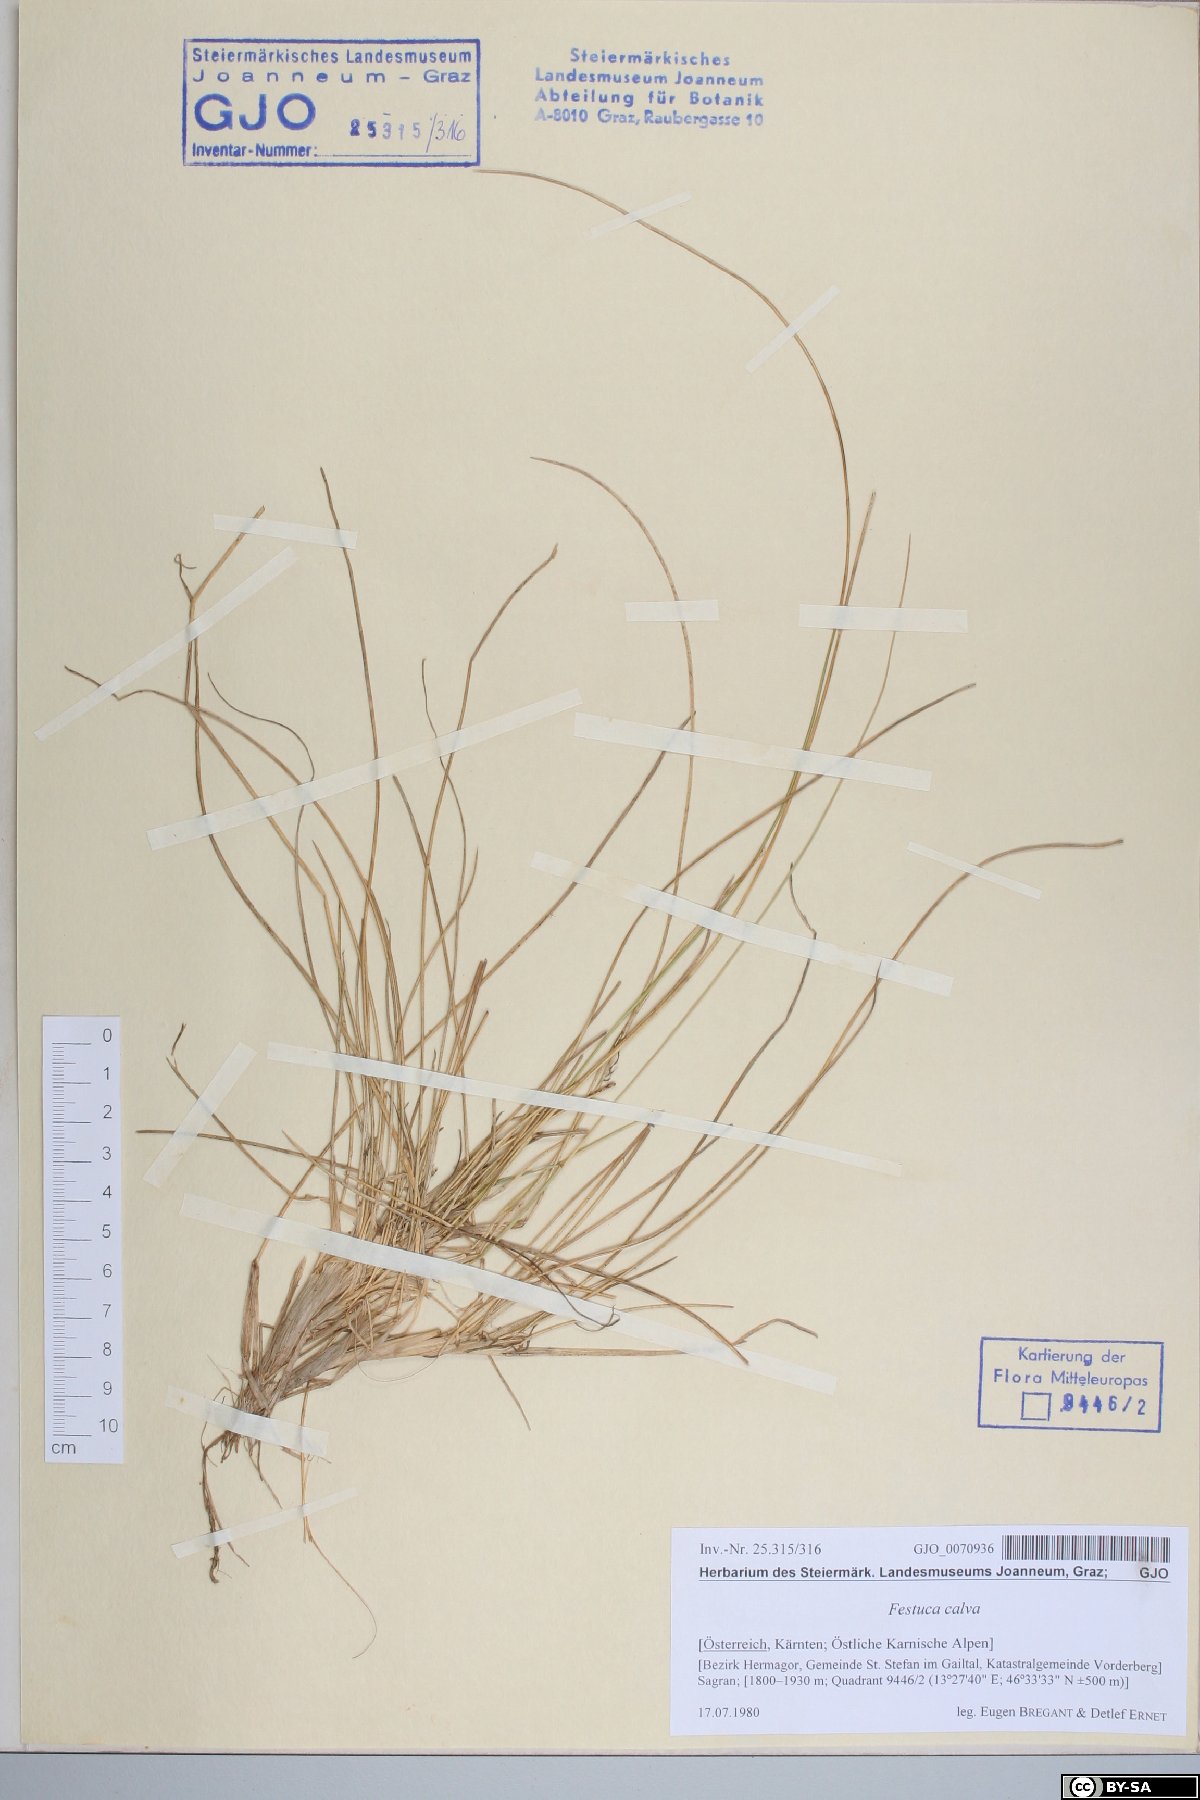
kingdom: Plantae
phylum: Tracheophyta
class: Liliopsida
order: Poales
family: Poaceae
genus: Festuca
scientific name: Festuca calva
